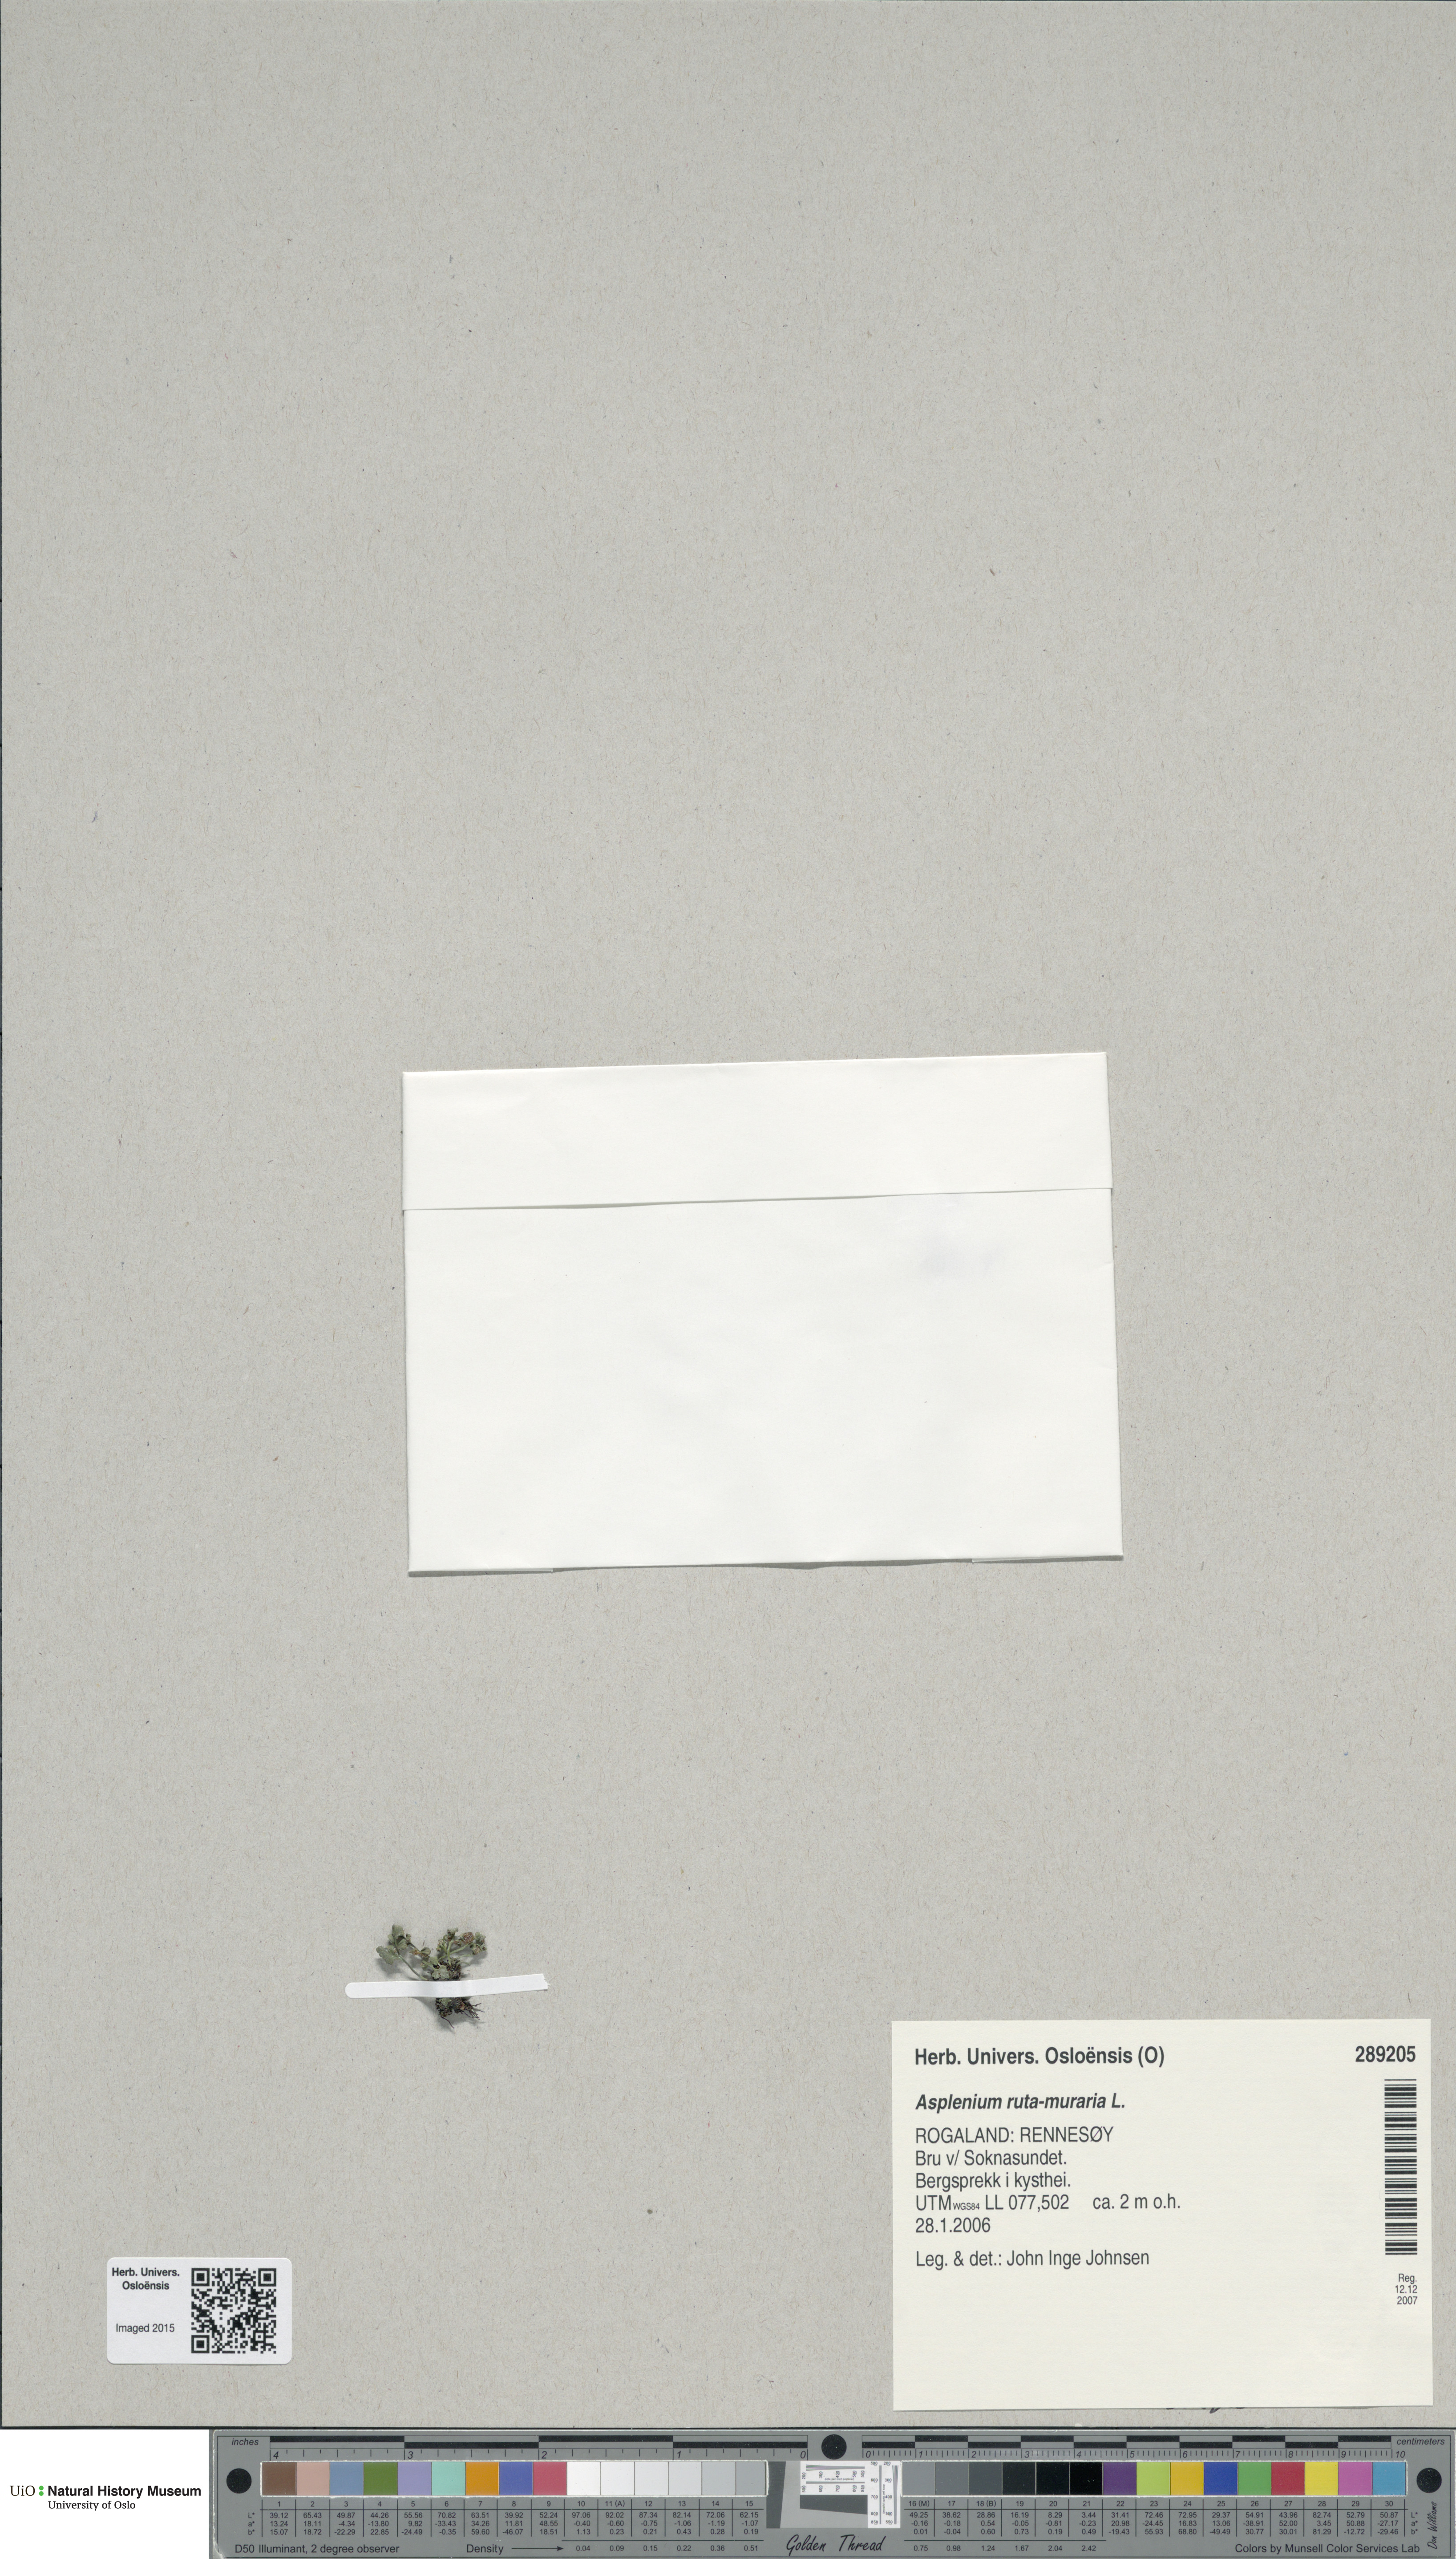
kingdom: Plantae
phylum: Tracheophyta
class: Polypodiopsida
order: Polypodiales
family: Aspleniaceae
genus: Asplenium
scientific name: Asplenium ruta-muraria
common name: Wall-rue
